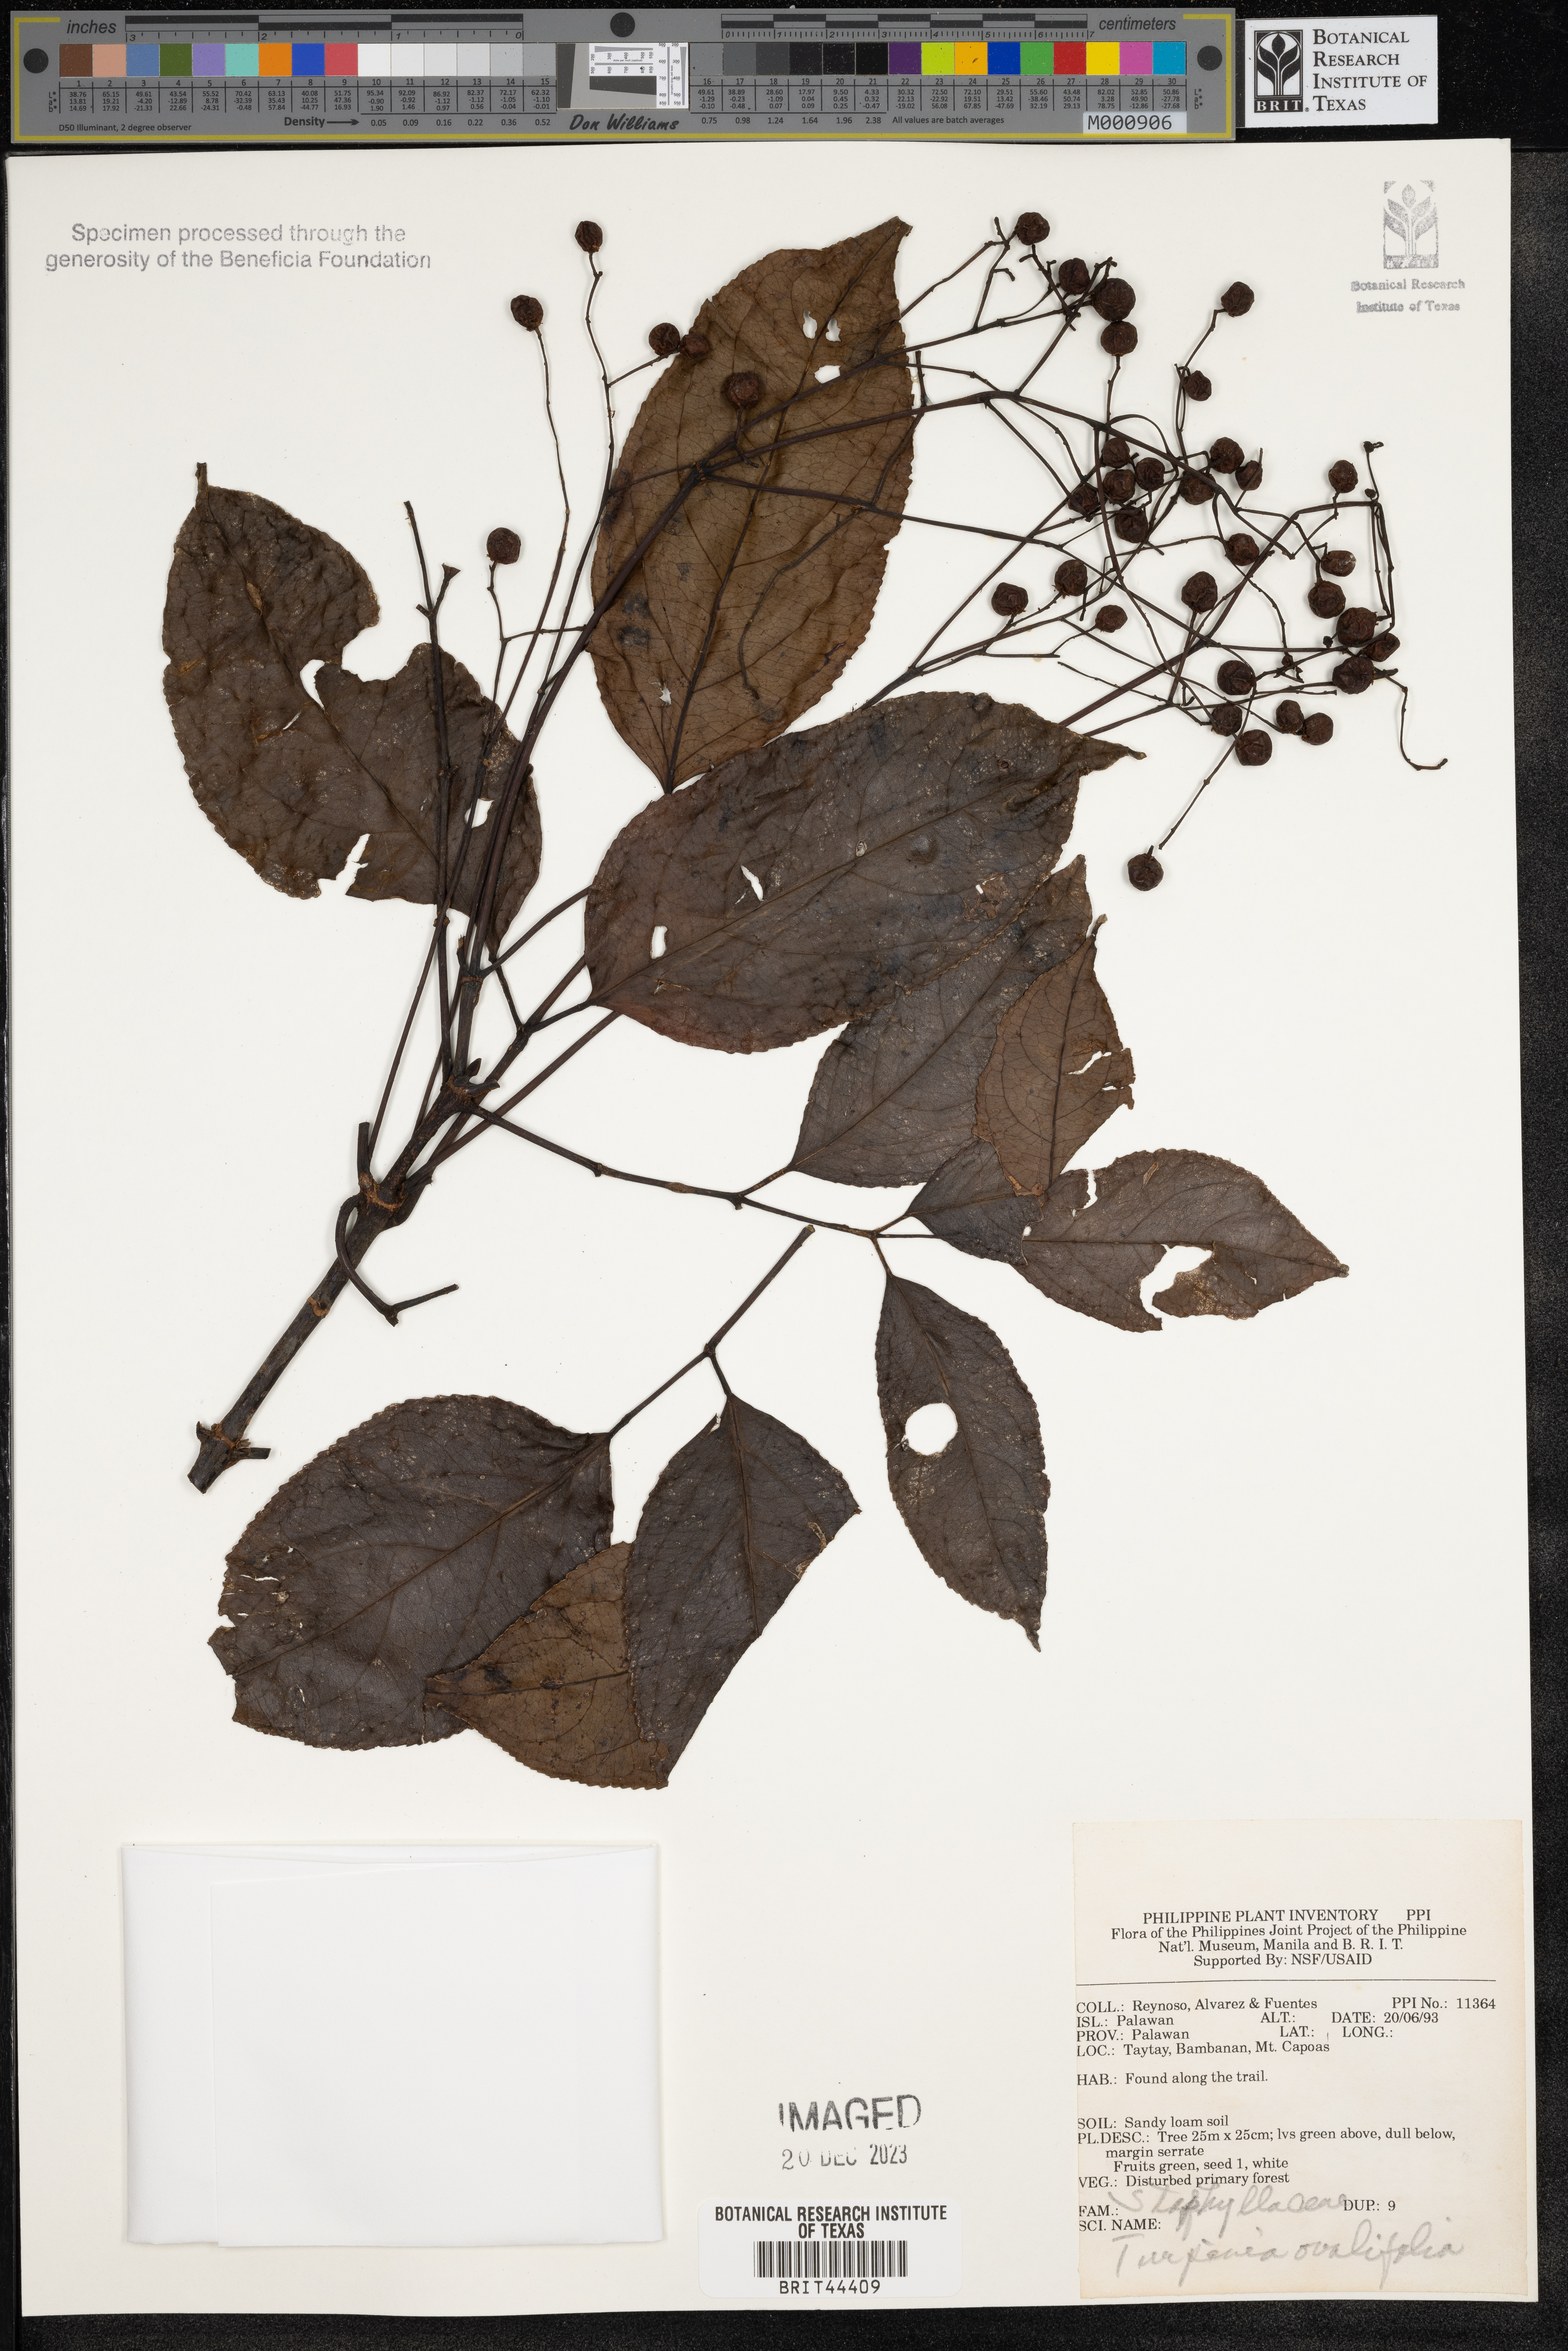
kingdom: Plantae
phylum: Tracheophyta
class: Magnoliopsida
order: Crossosomatales
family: Staphyleaceae
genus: Dalrympelea
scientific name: Dalrympelea trifoliata
